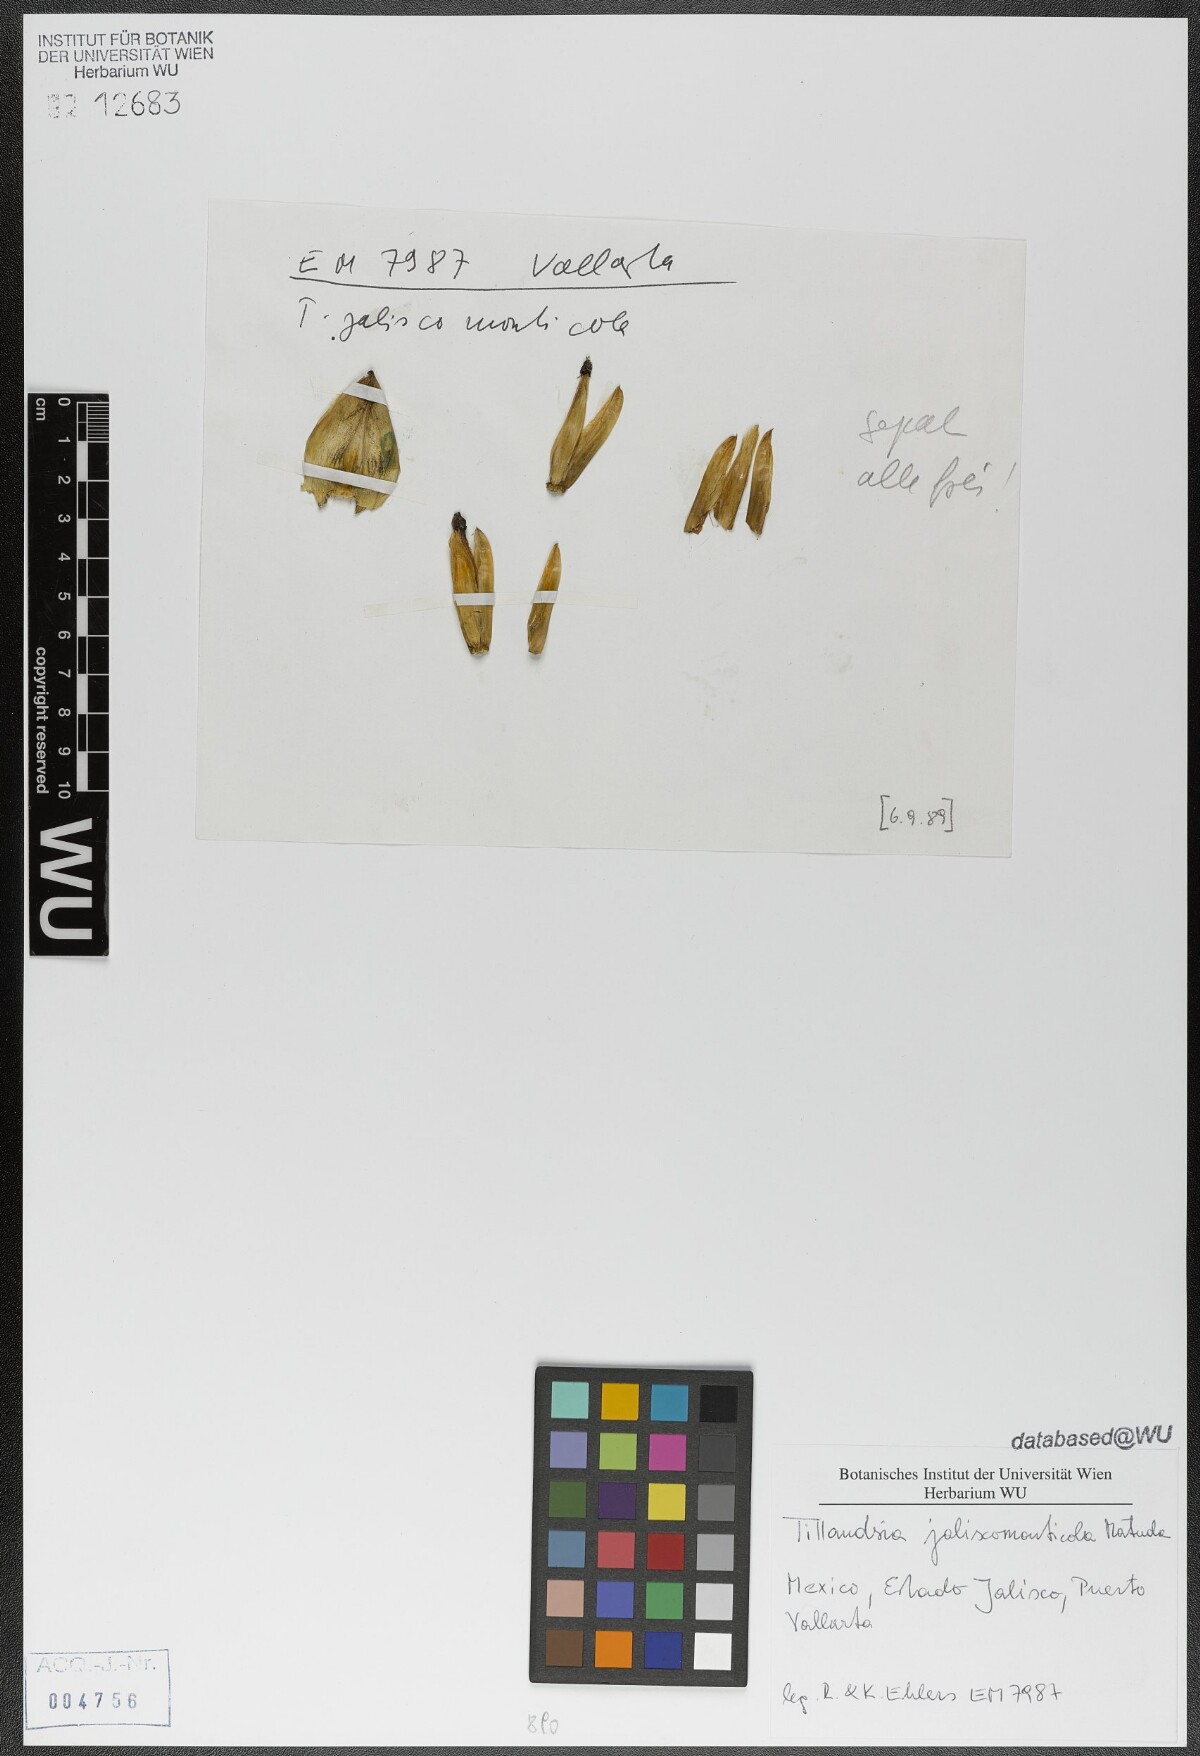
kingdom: Plantae
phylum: Tracheophyta
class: Liliopsida
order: Poales
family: Bromeliaceae
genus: Tillandsia
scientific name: Tillandsia compressa
